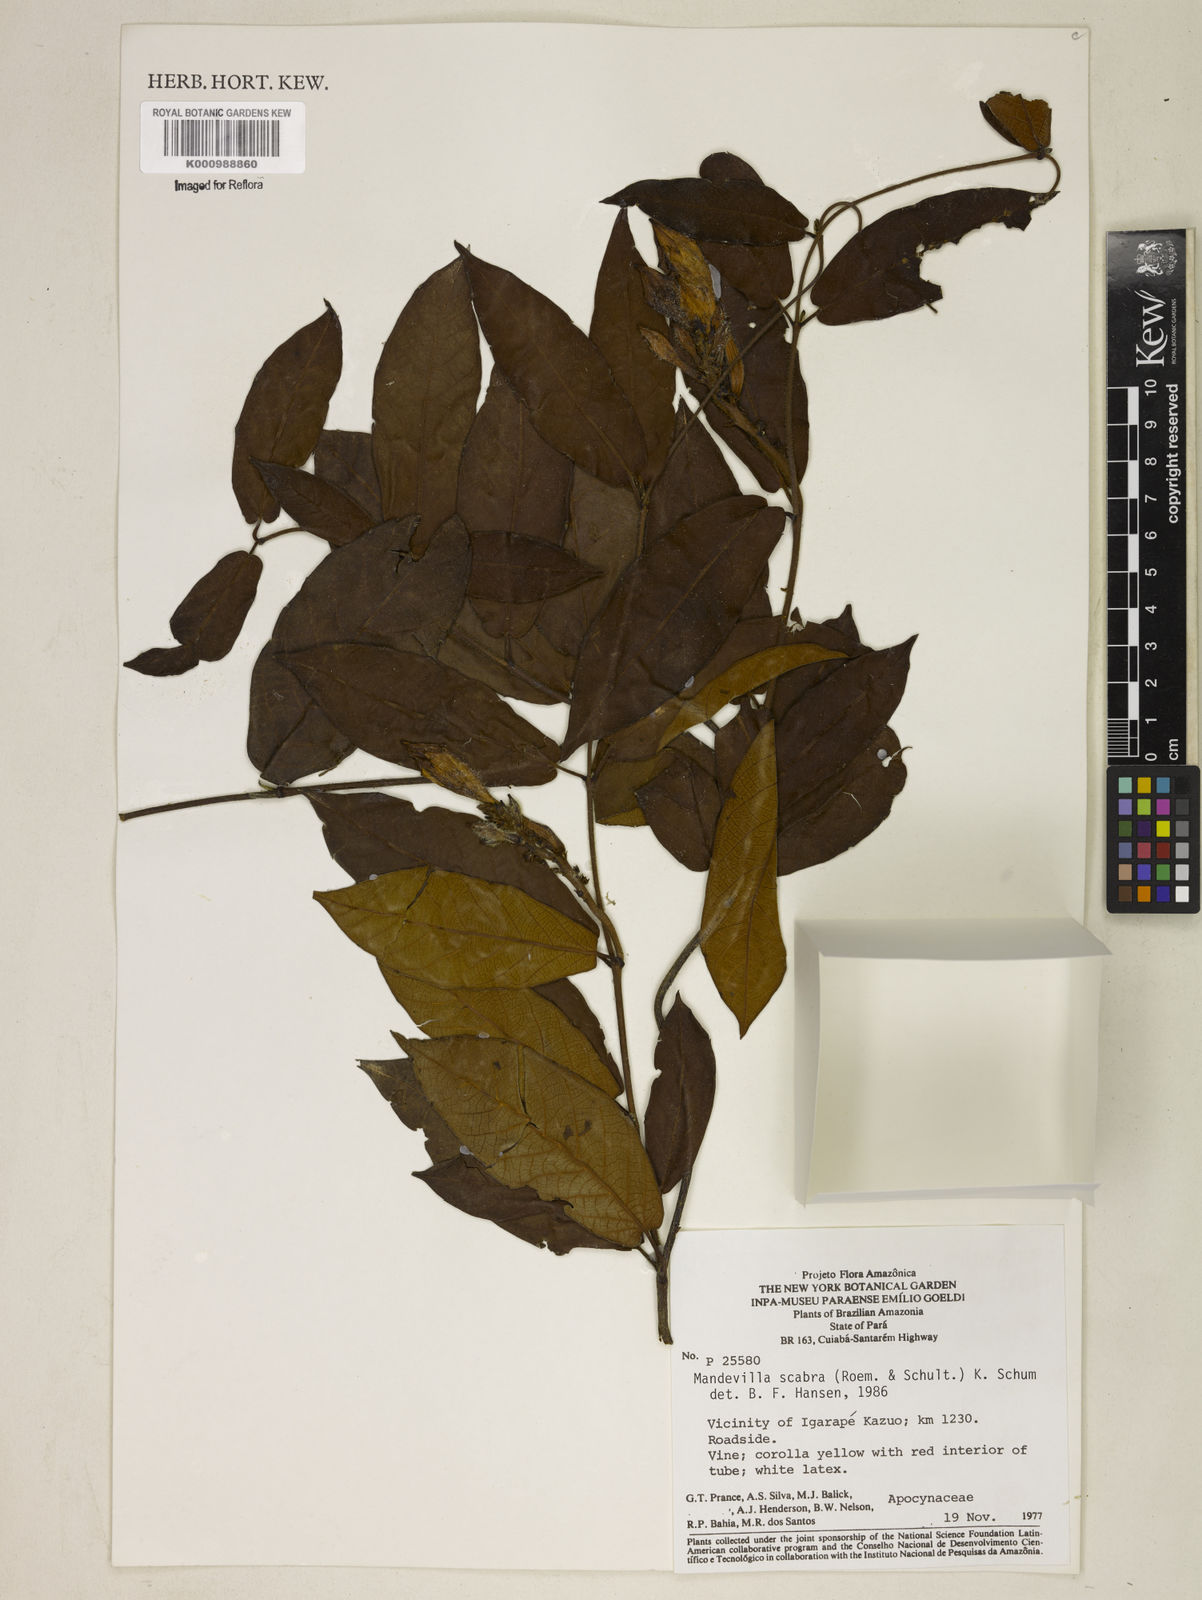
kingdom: Plantae
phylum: Tracheophyta
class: Magnoliopsida
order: Gentianales
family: Apocynaceae
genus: Mandevilla
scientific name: Mandevilla scabra
